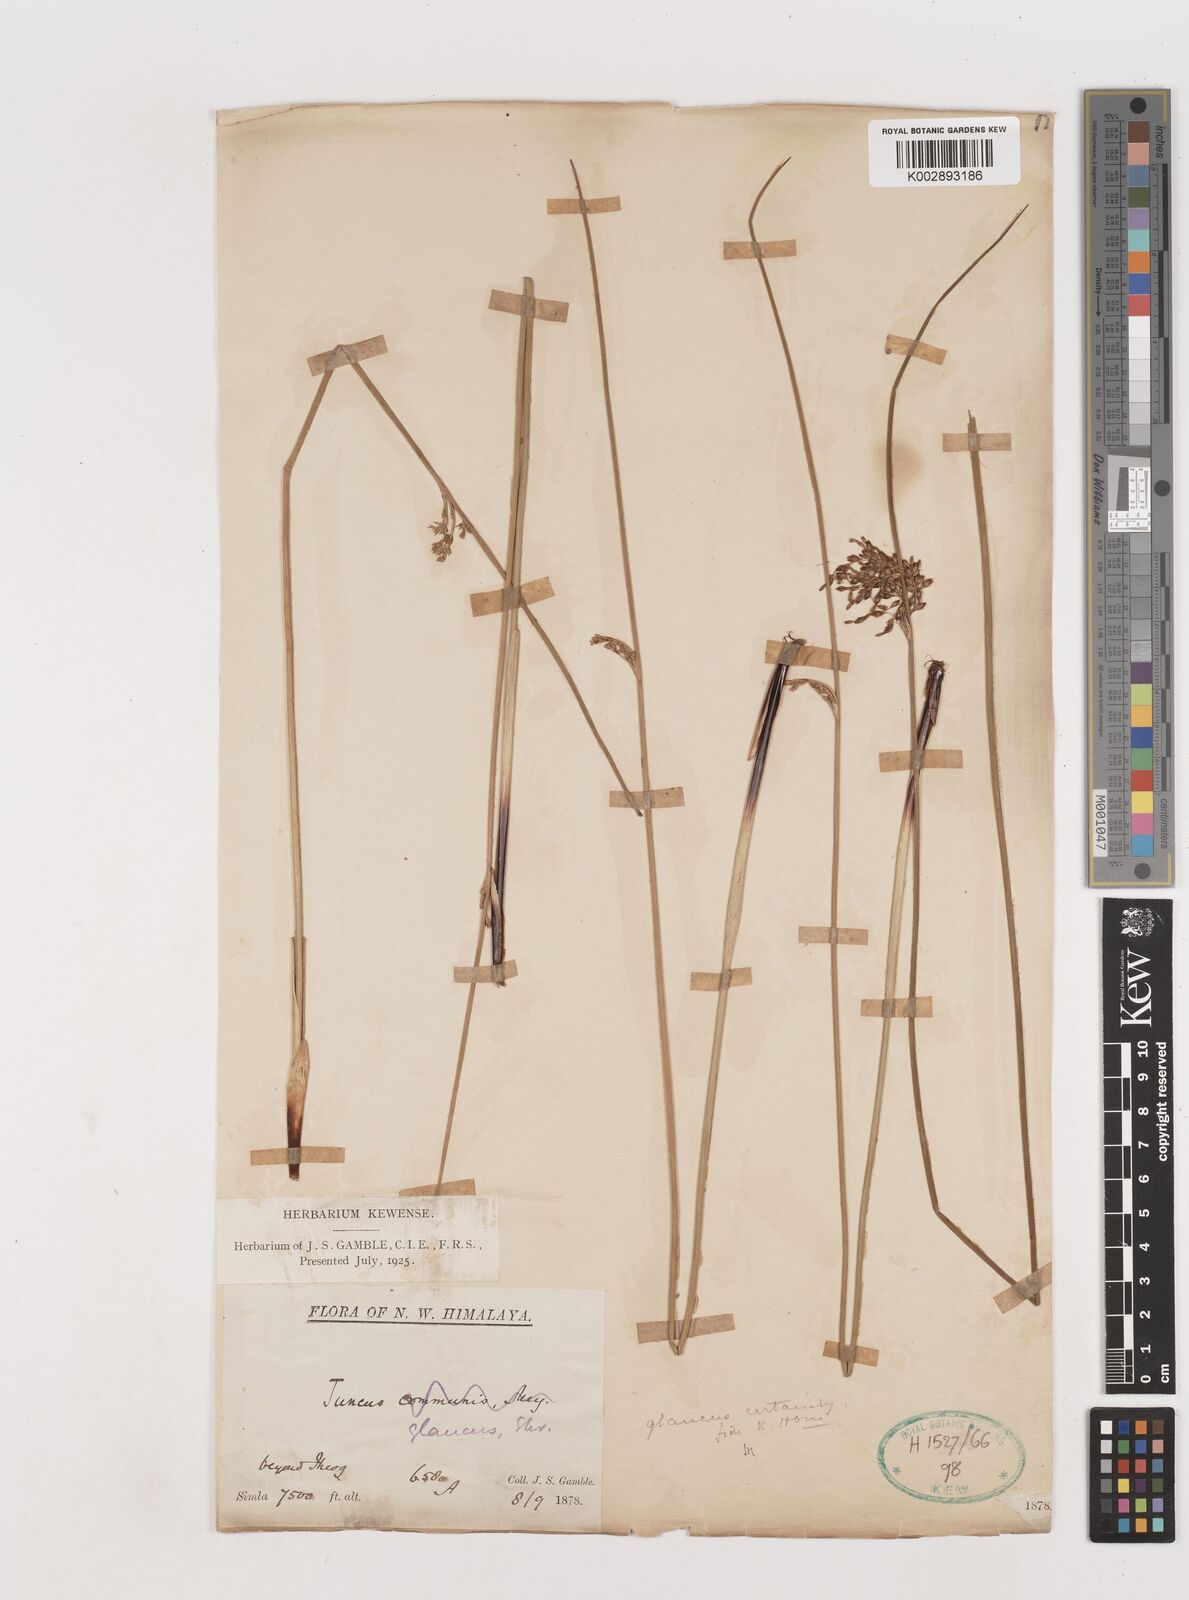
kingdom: Plantae
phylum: Tracheophyta
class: Liliopsida
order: Poales
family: Juncaceae
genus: Juncus
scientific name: Juncus inflexus
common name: Hard rush
